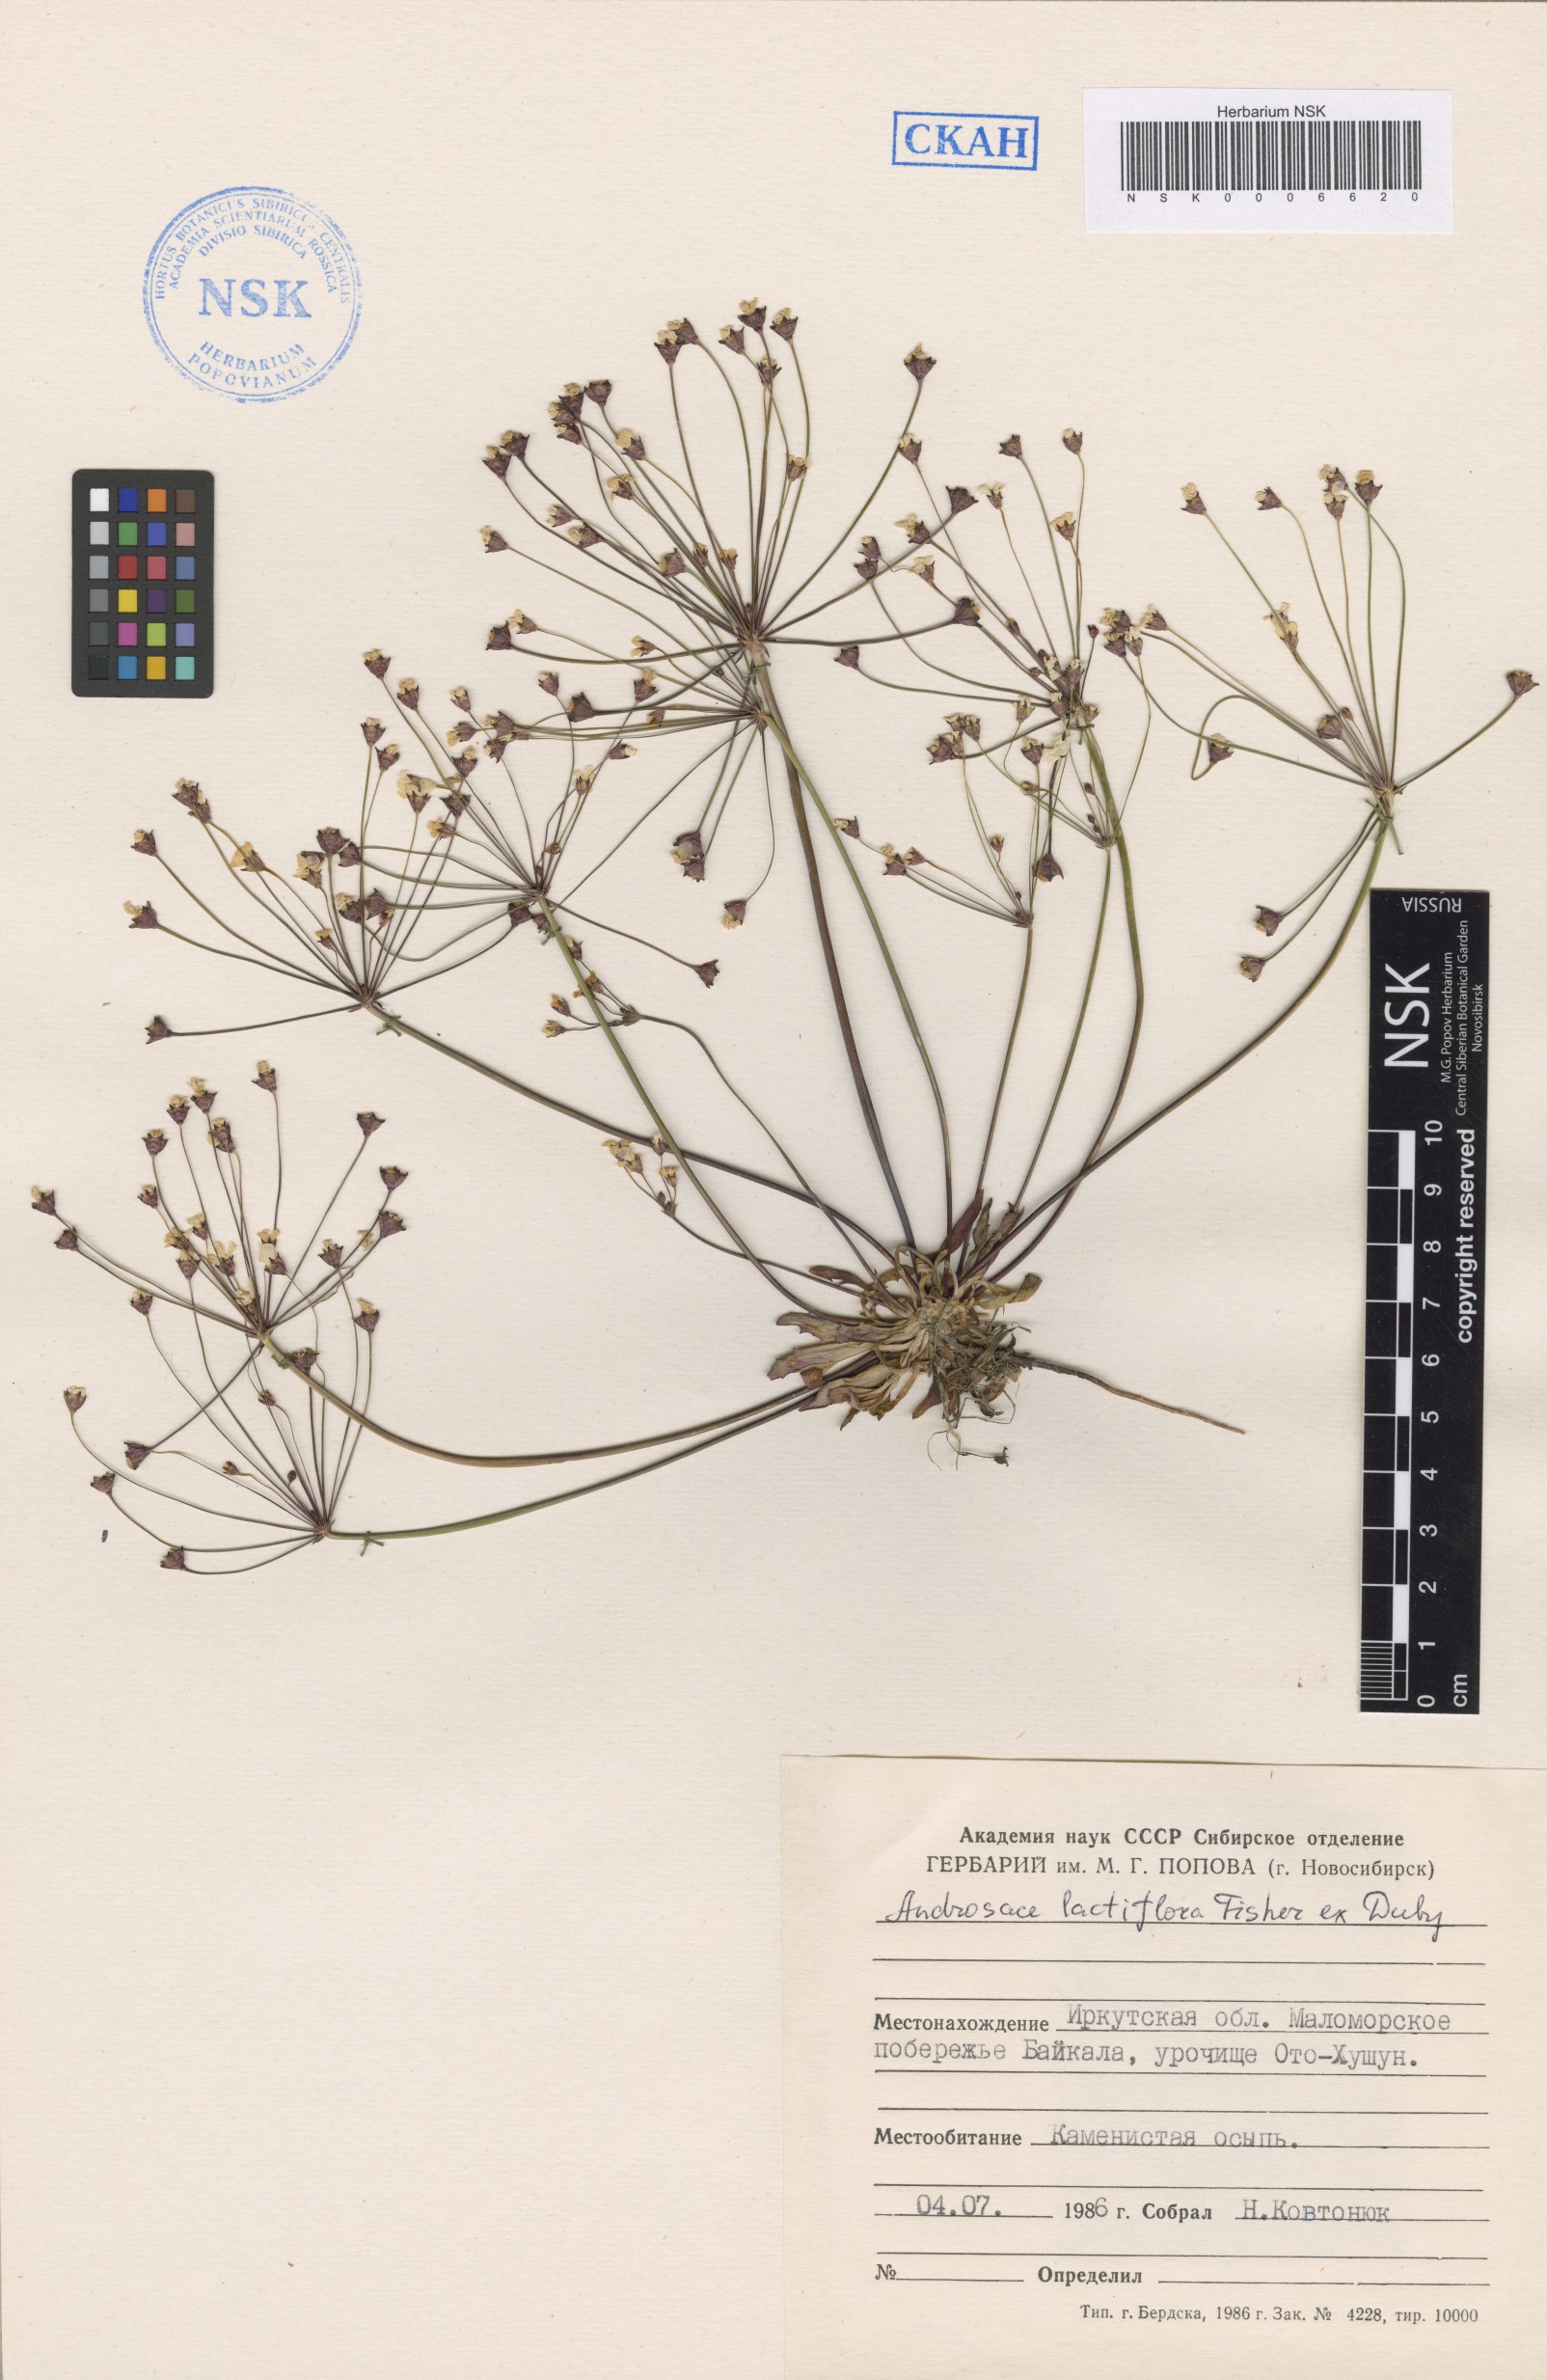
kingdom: Plantae
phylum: Tracheophyta
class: Magnoliopsida
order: Ericales
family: Primulaceae
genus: Androsace
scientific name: Androsace lactiflora
